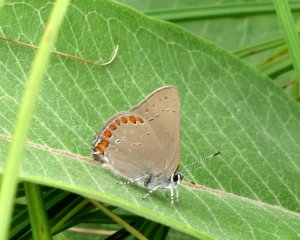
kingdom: Animalia
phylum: Arthropoda
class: Insecta
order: Lepidoptera
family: Lycaenidae
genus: Harkenclenus
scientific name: Harkenclenus titus
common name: Coral Hairstreak
